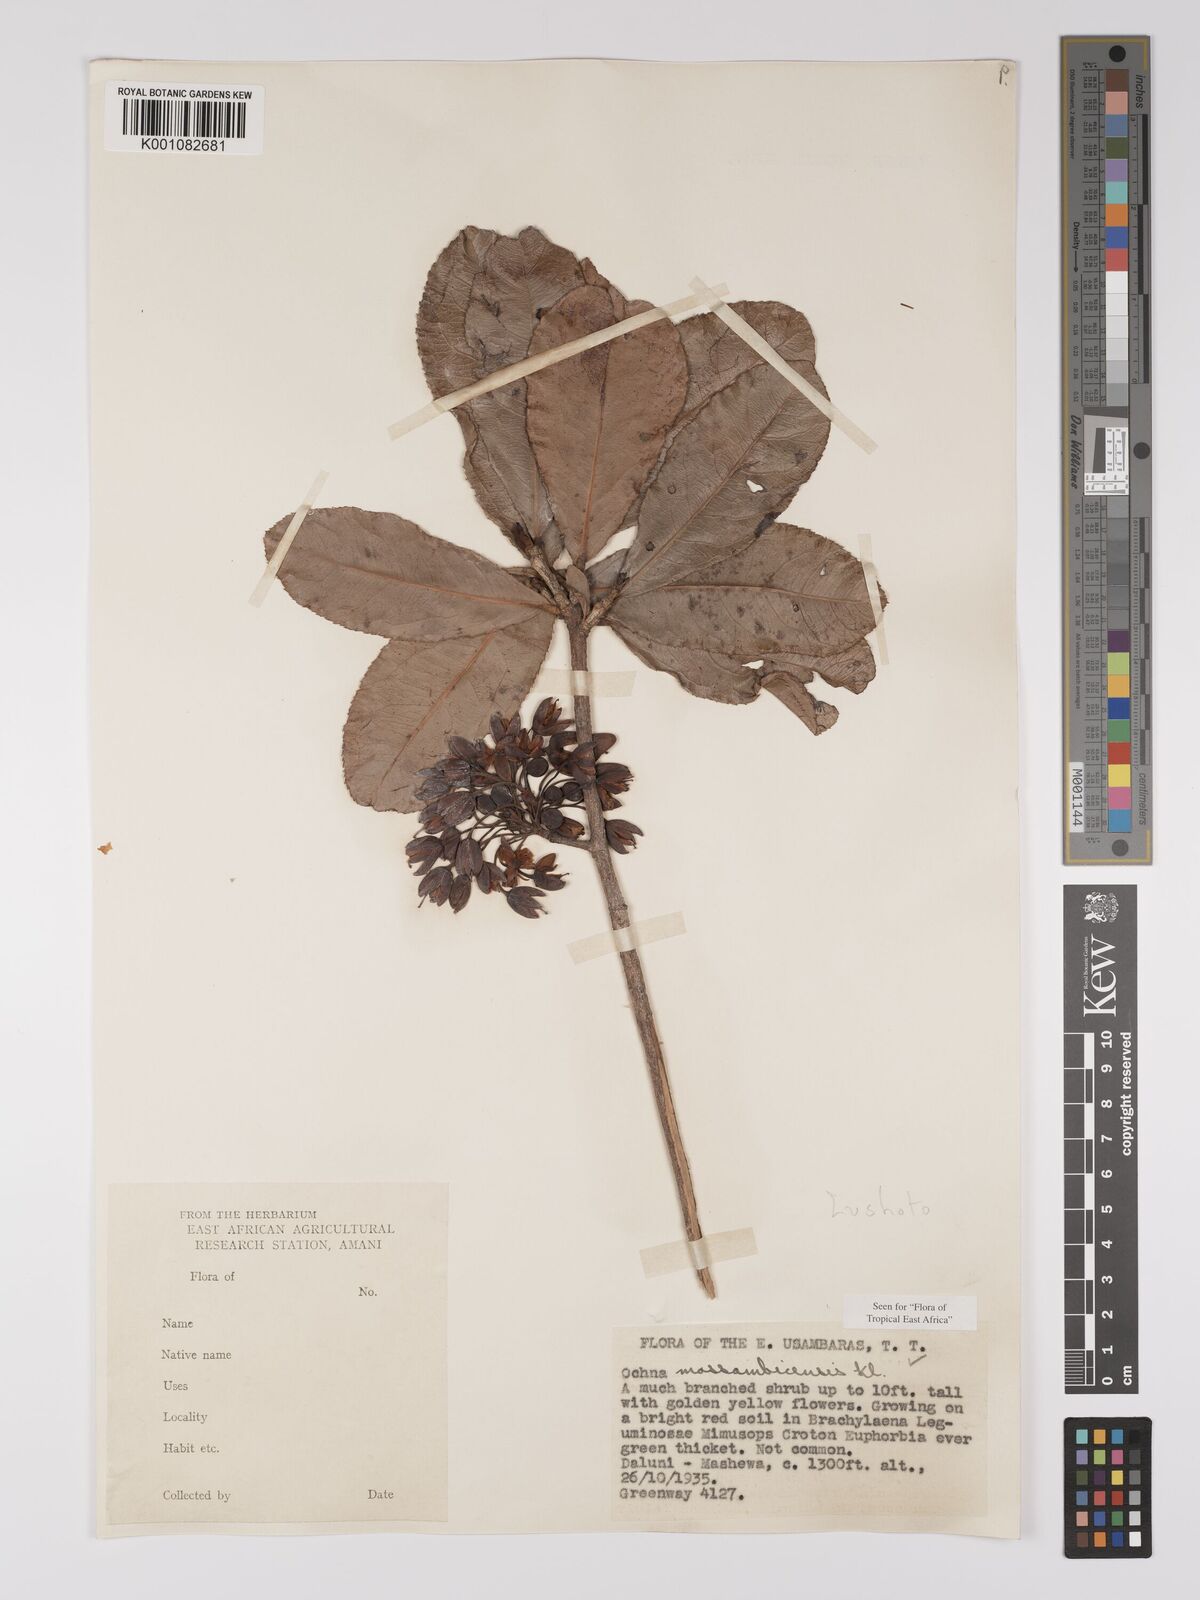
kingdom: Plantae
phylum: Tracheophyta
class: Magnoliopsida
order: Malpighiales
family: Ochnaceae
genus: Ochna
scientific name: Ochna atropurpurea
